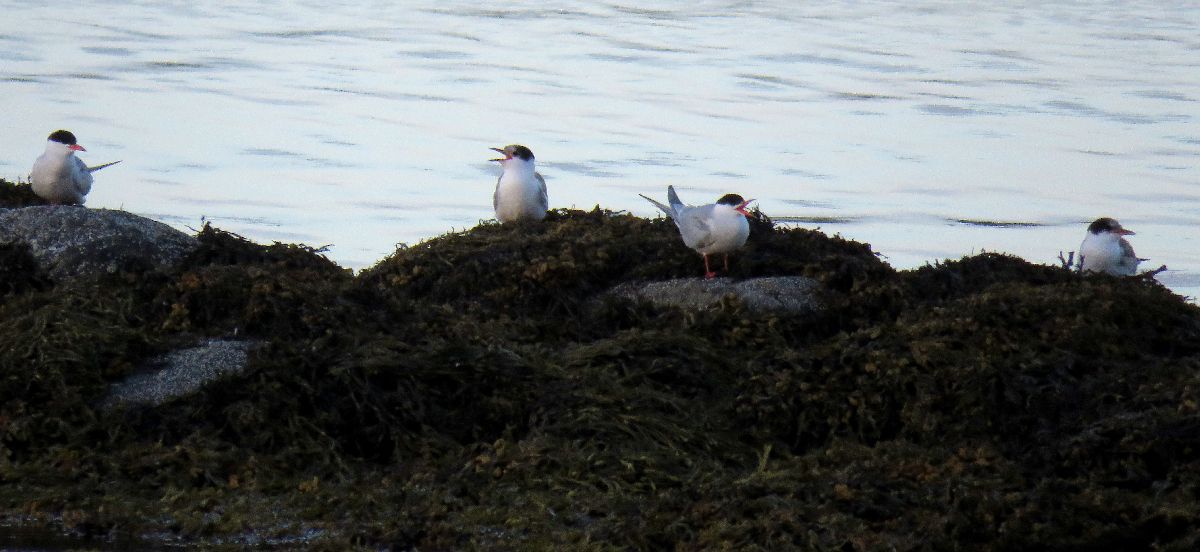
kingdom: Animalia
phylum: Chordata
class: Aves
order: Charadriiformes
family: Laridae
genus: Sterna
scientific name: Sterna hirundo
